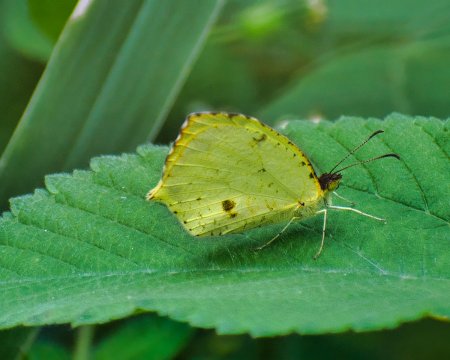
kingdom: Animalia
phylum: Arthropoda
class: Insecta
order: Lepidoptera
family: Pieridae
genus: Eurema
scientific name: Eurema salome
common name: Salome Yellow
